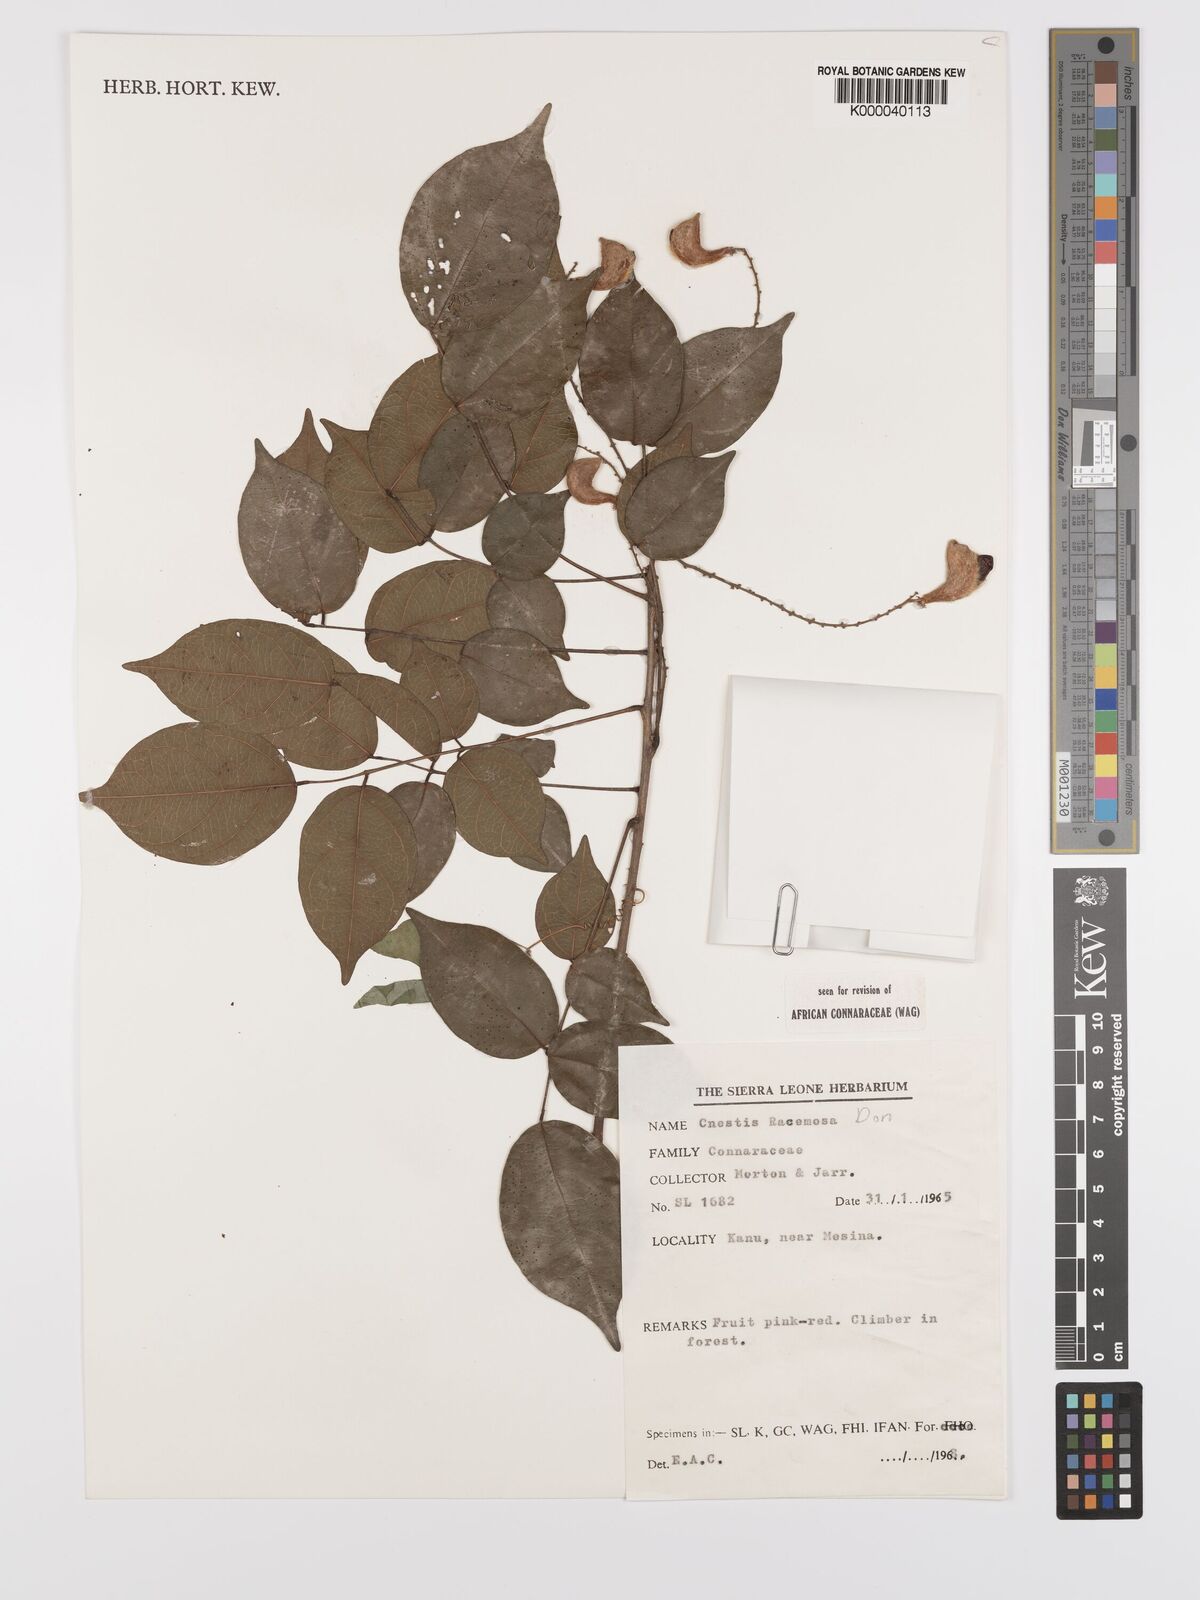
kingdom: Plantae
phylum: Tracheophyta
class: Magnoliopsida
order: Oxalidales
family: Connaraceae
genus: Cnestis
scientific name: Cnestis racemosa
